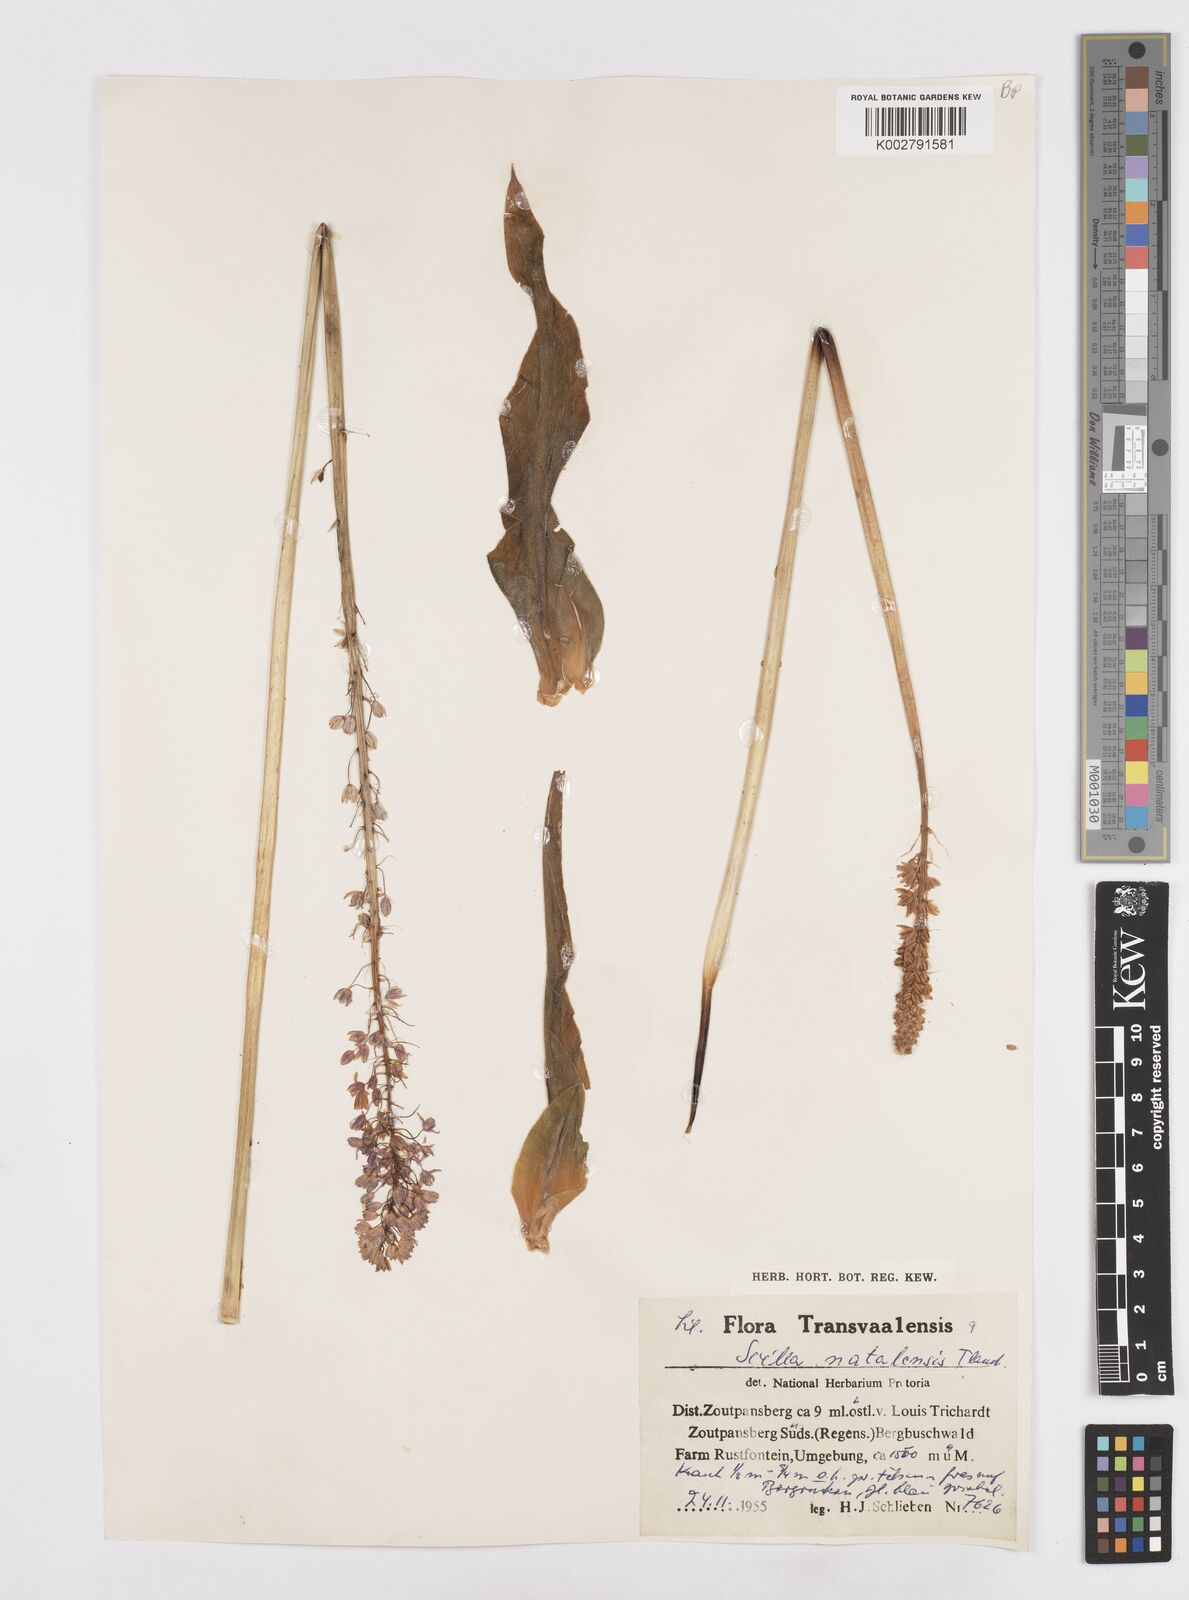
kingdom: Plantae
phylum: Tracheophyta
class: Liliopsida
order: Asparagales
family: Asparagaceae
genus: Merwilla
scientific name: Merwilla plumbea
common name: Blue-squill
